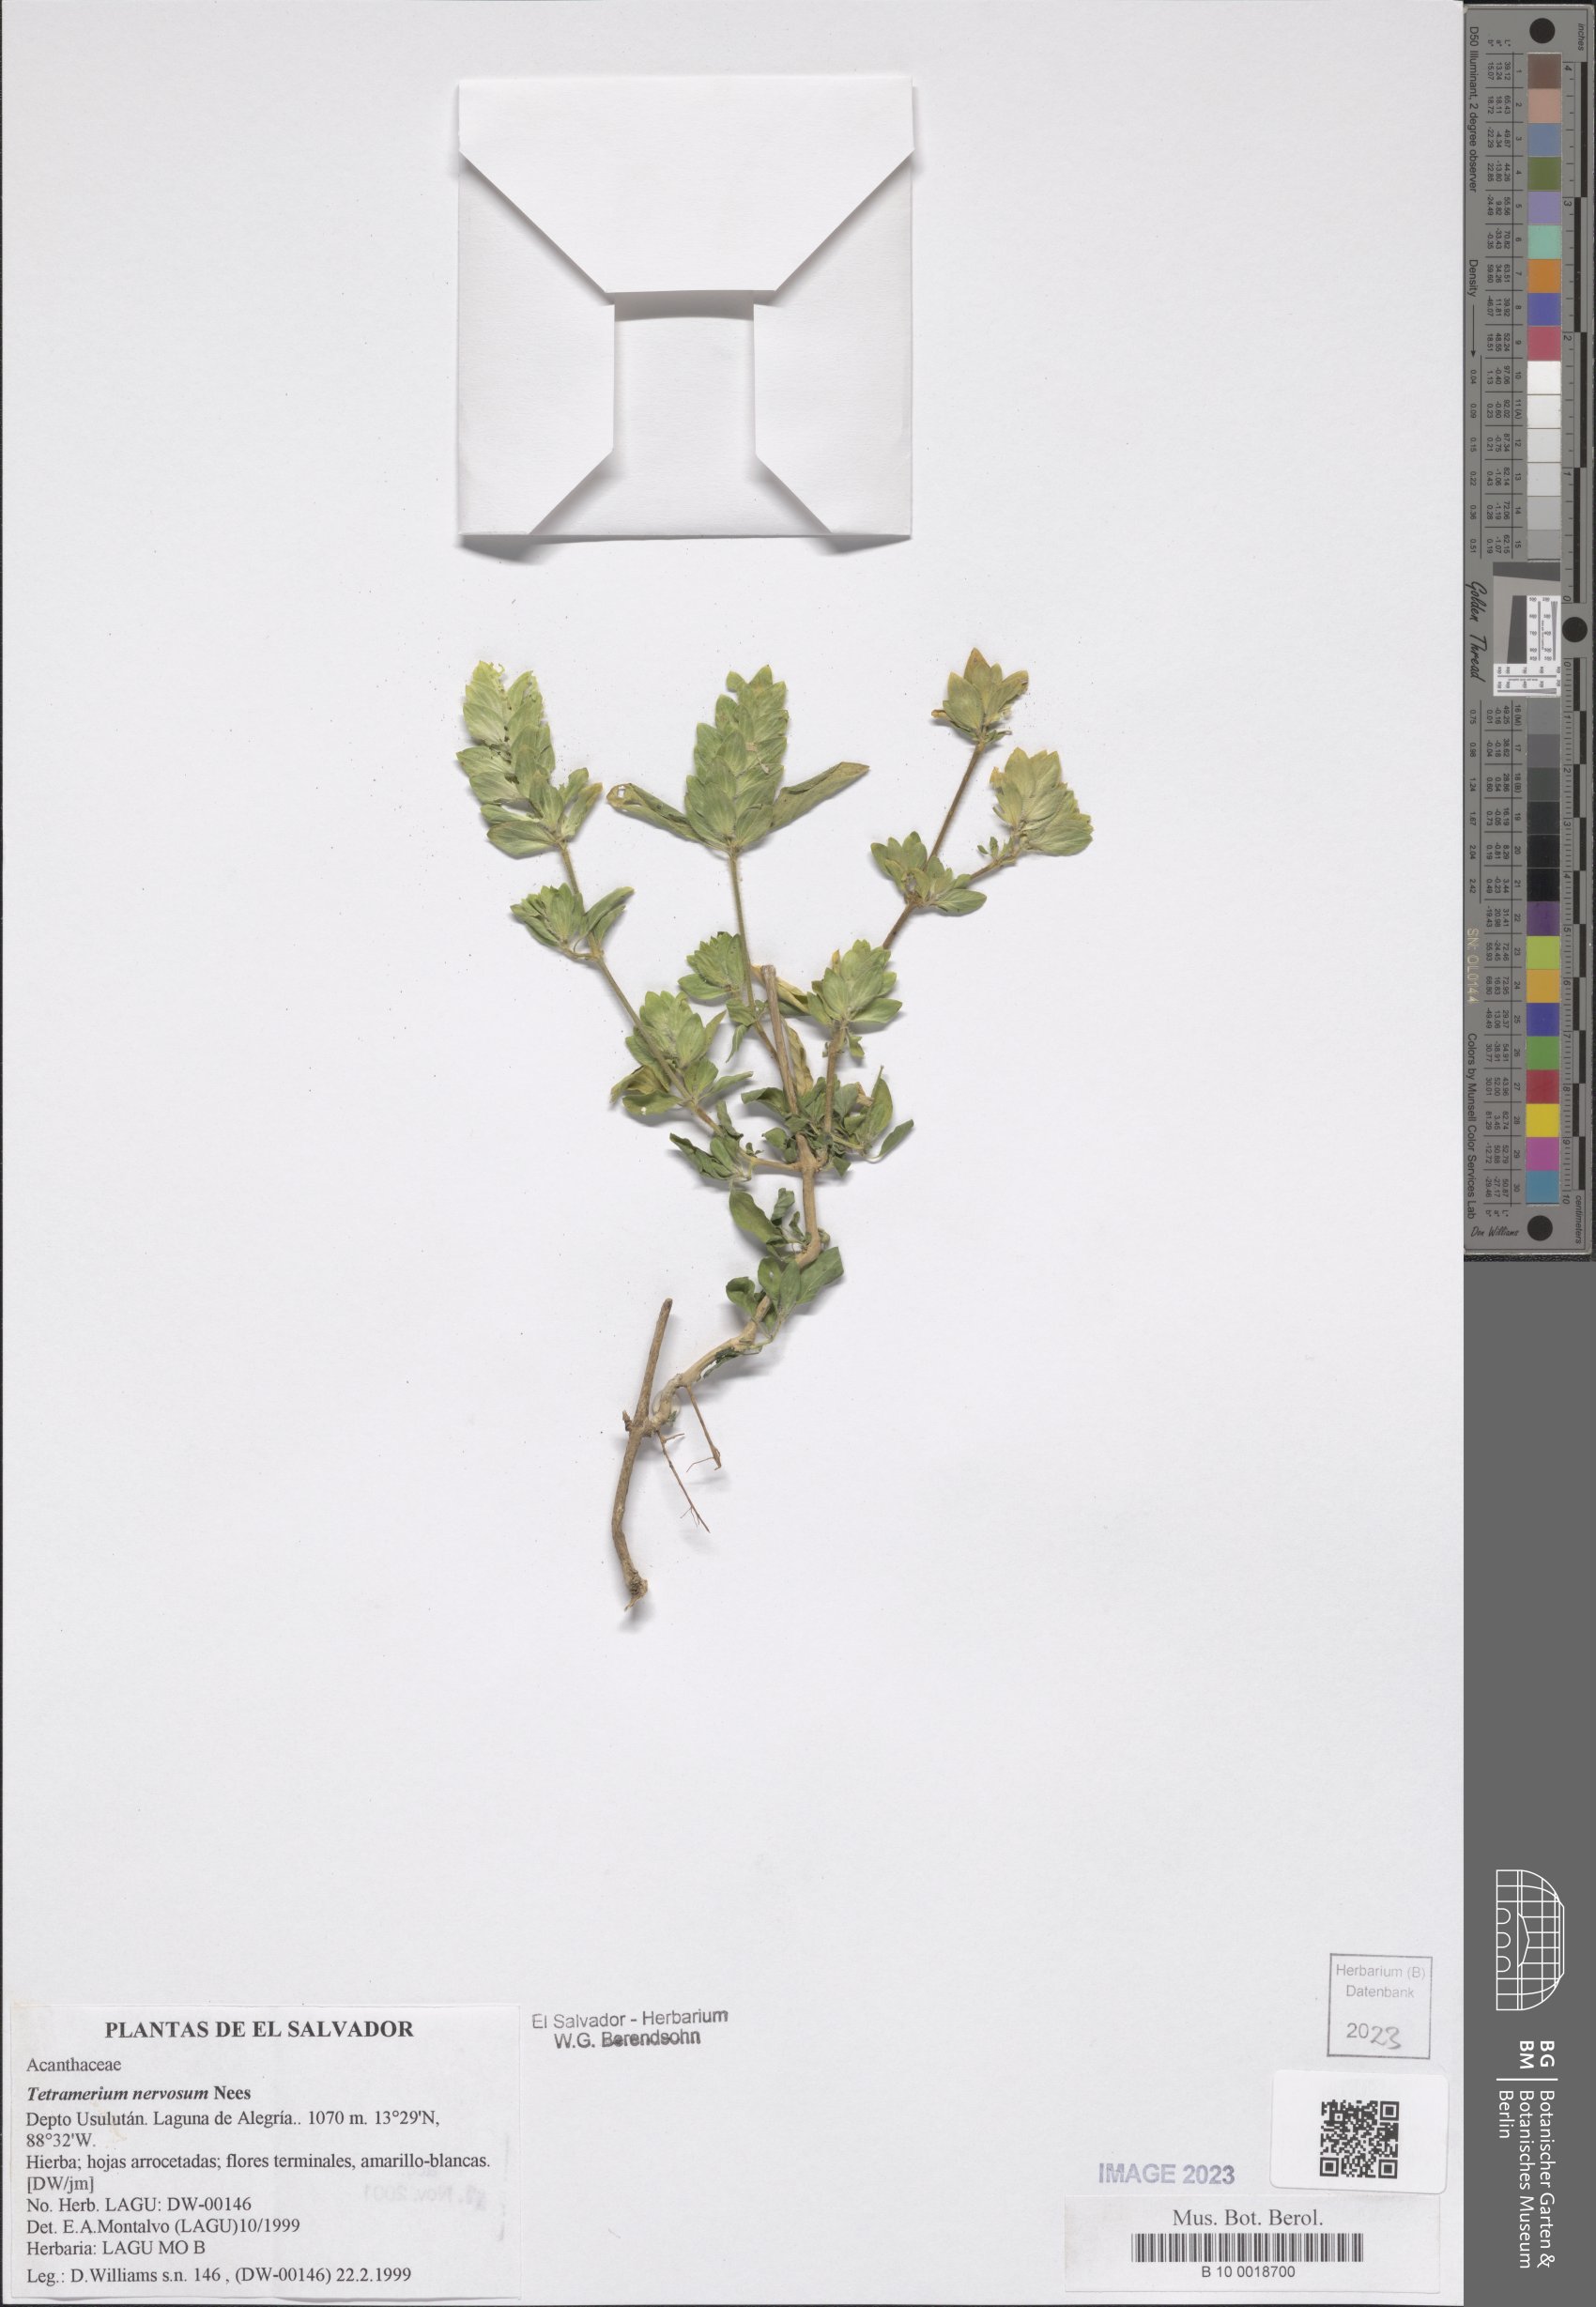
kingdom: Plantae
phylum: Tracheophyta
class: Magnoliopsida
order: Lamiales
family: Acanthaceae
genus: Tetramerium
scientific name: Tetramerium nervosum
